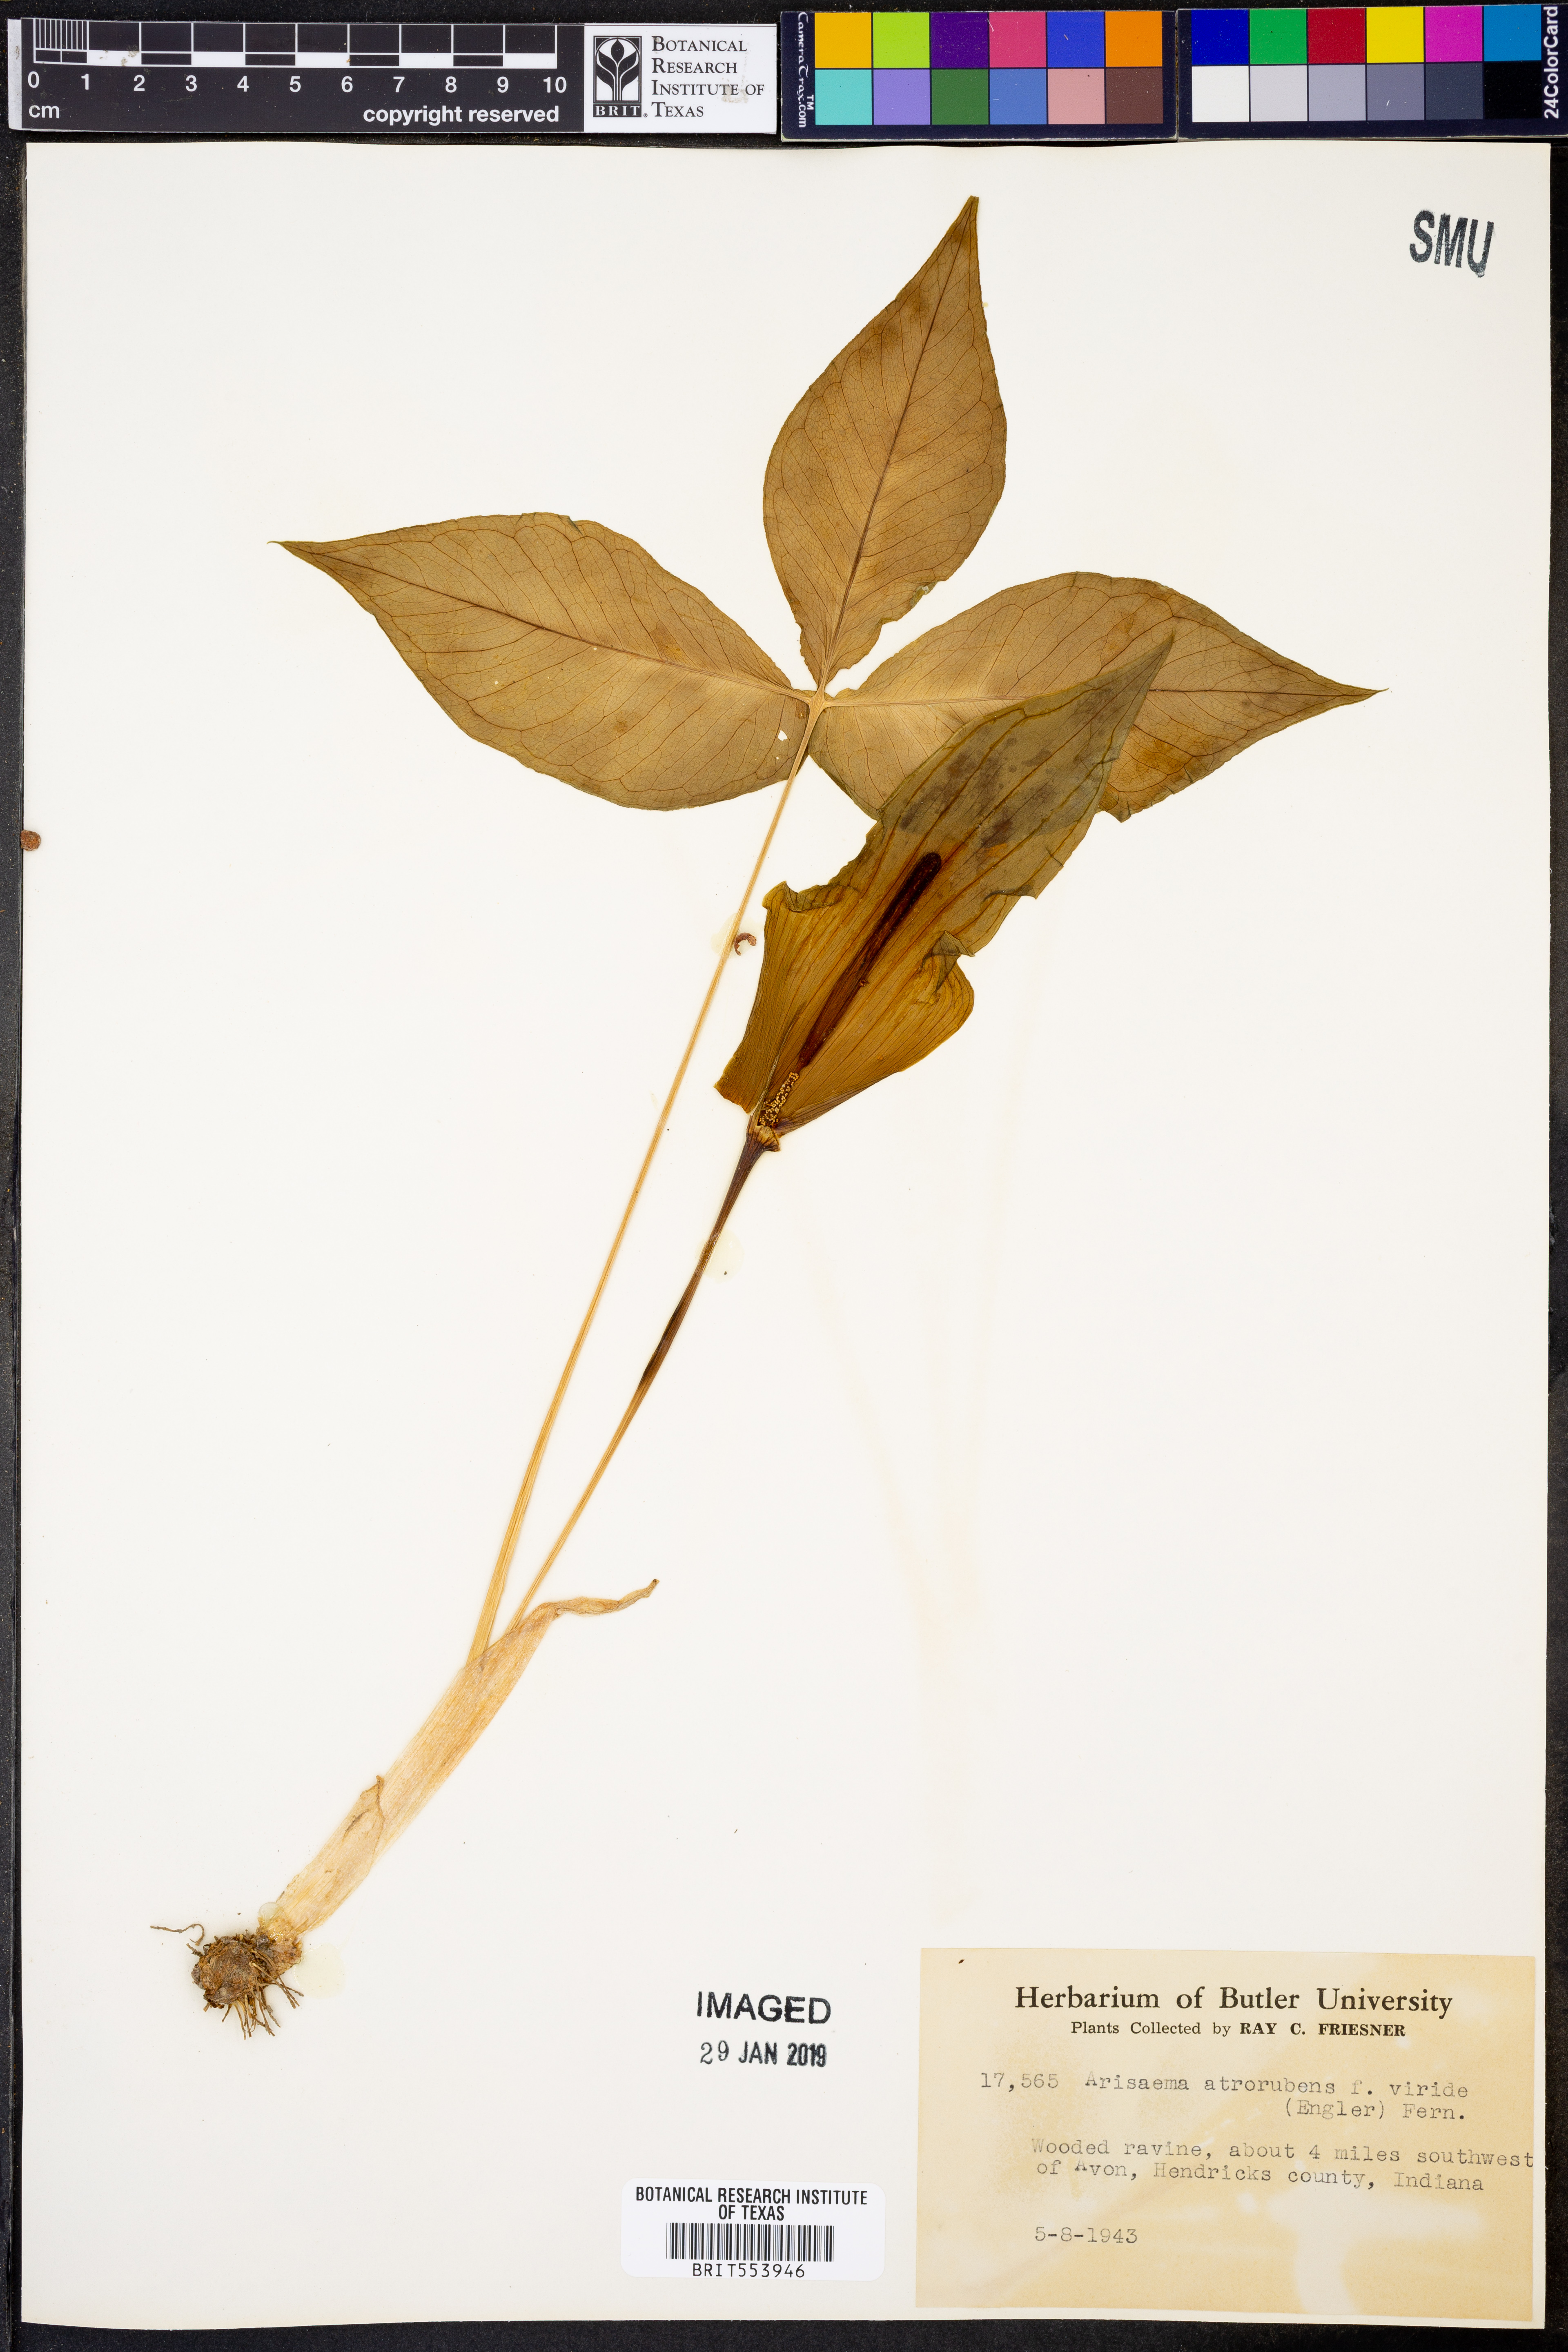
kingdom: Plantae
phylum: Tracheophyta
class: Liliopsida
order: Alismatales
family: Araceae
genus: Arisaema
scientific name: Arisaema triphyllum
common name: Jack-in-the-pulpit
